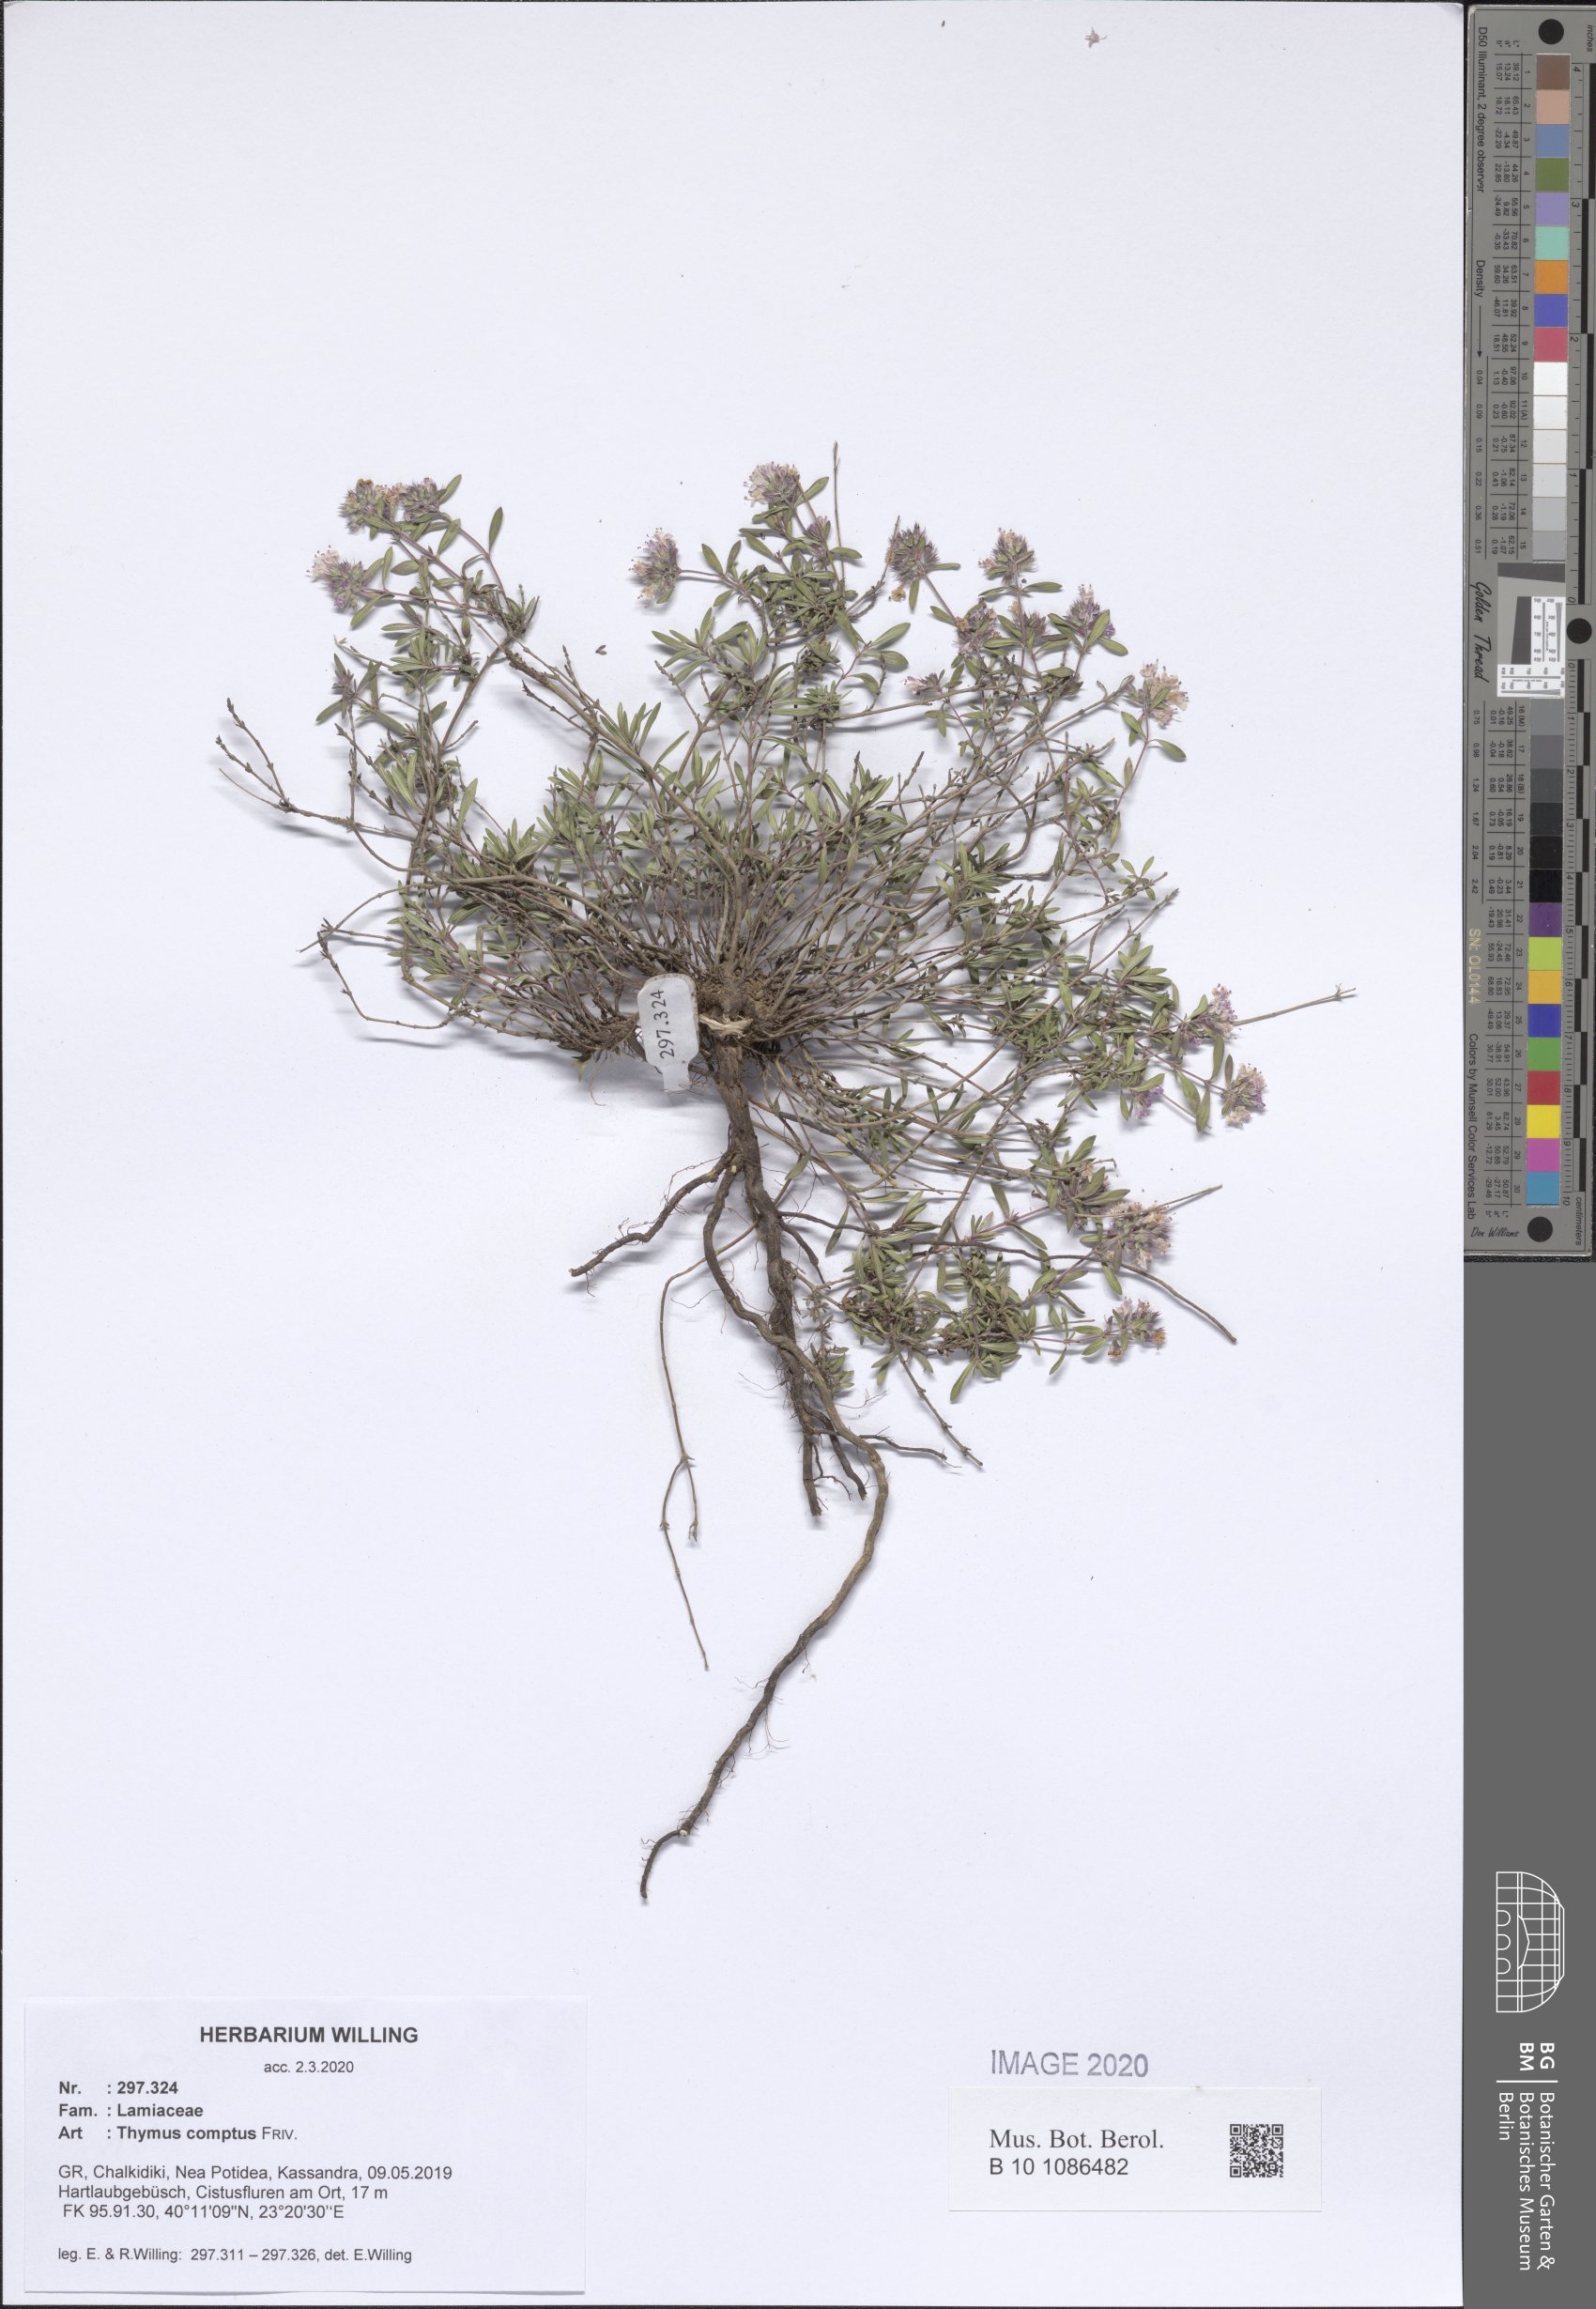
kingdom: Plantae
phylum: Tracheophyta
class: Magnoliopsida
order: Lamiales
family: Lamiaceae
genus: Thymus
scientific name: Thymus sibthorpii
